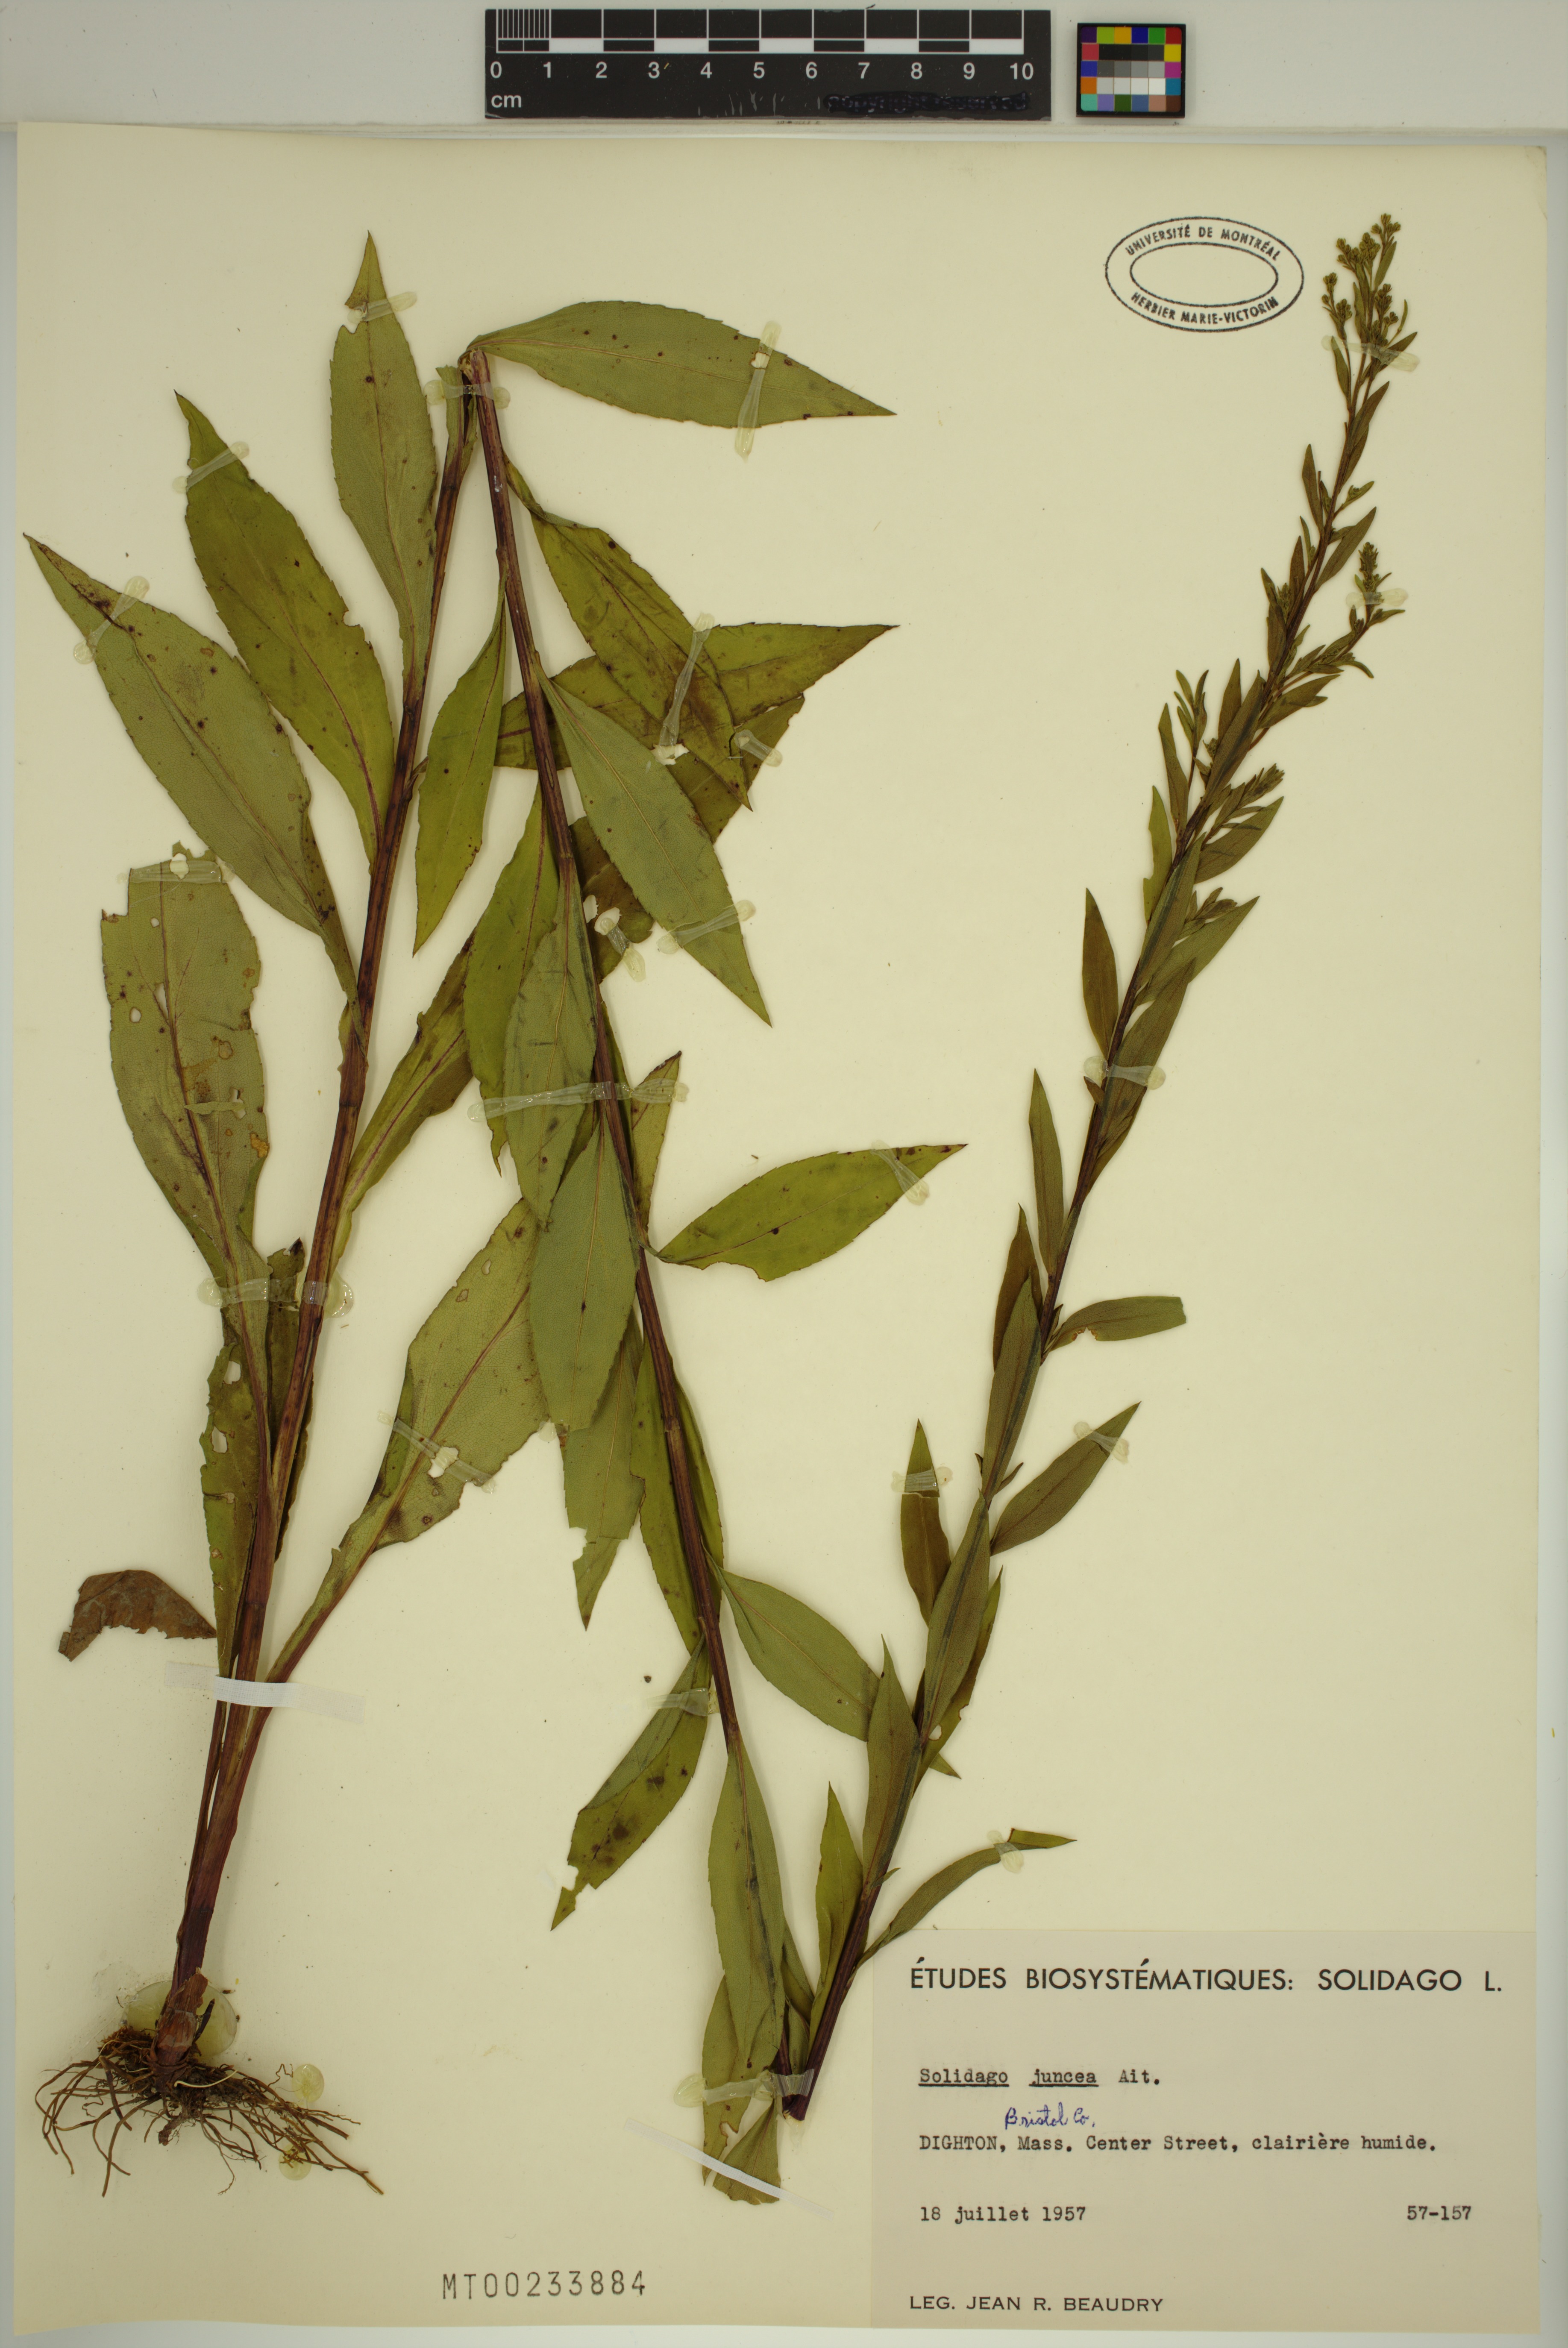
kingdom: Plantae
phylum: Tracheophyta
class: Magnoliopsida
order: Asterales
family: Asteraceae
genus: Solidago
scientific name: Solidago juncea
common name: Early goldenrod
